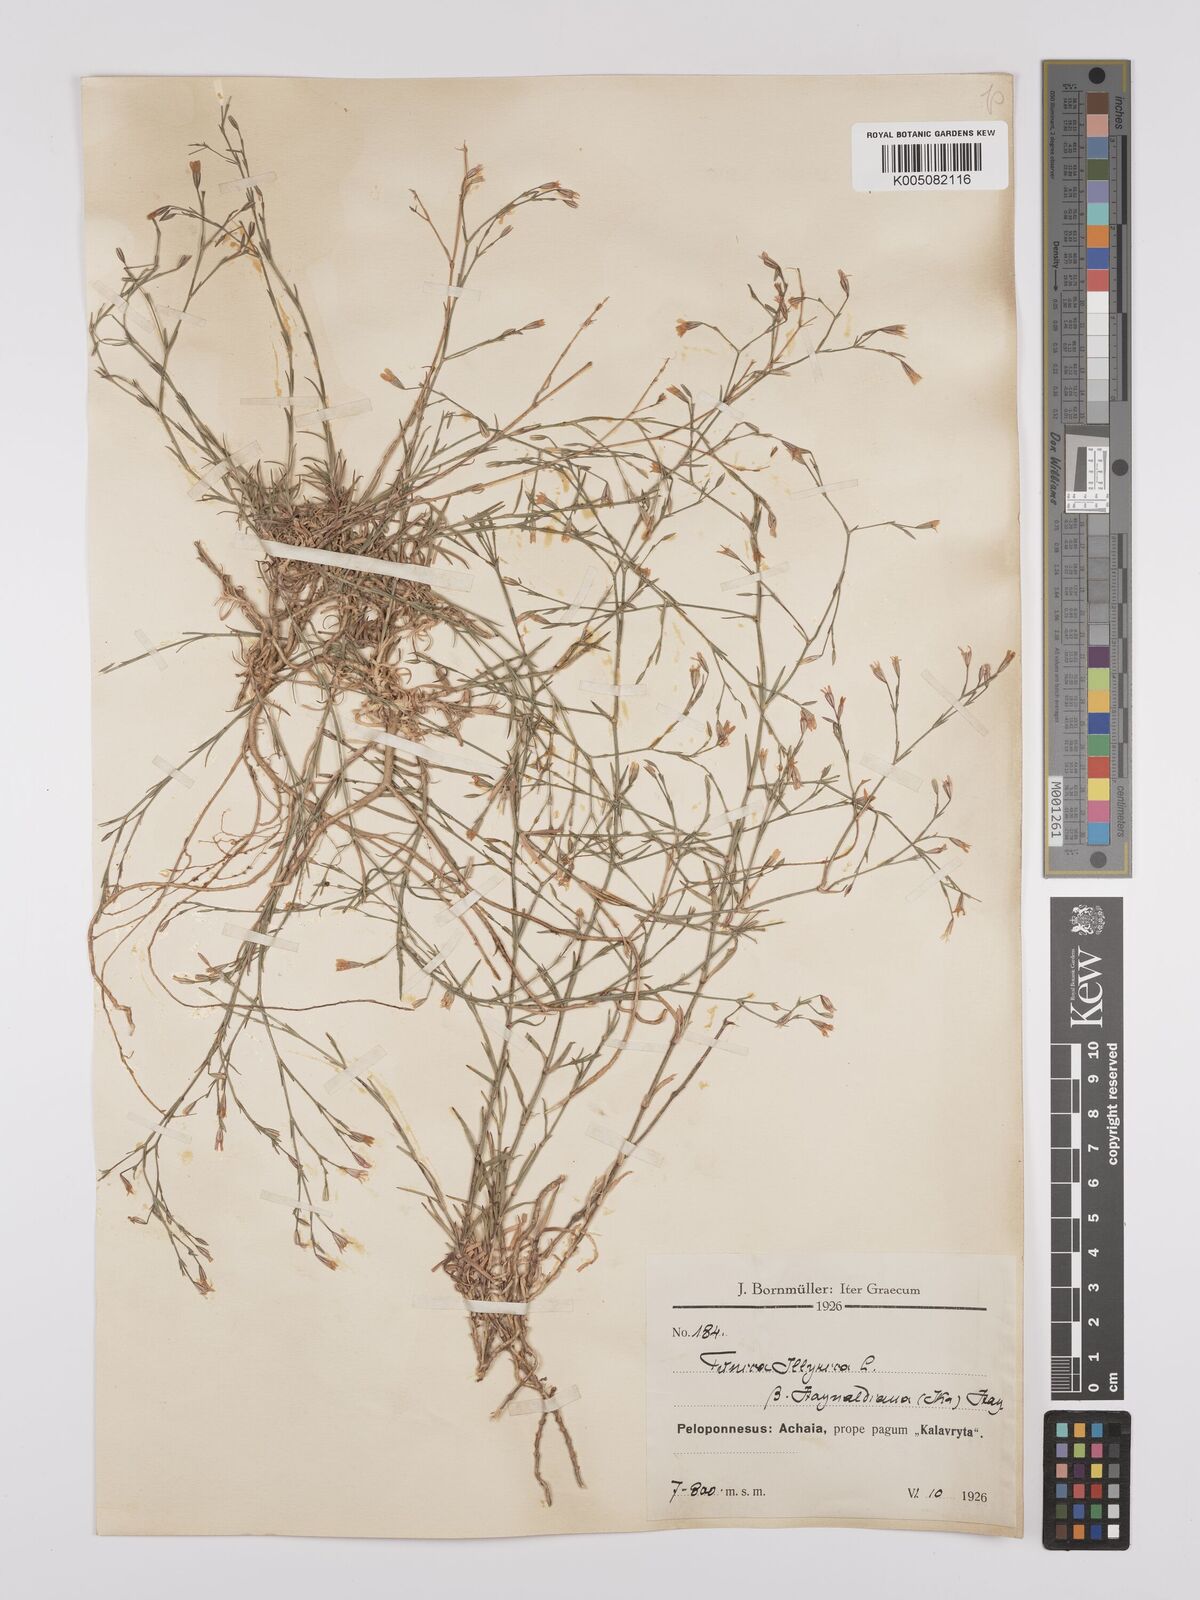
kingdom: Plantae
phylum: Tracheophyta
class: Magnoliopsida
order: Caryophyllales
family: Caryophyllaceae
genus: Dianthus
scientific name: Dianthus illyricus
